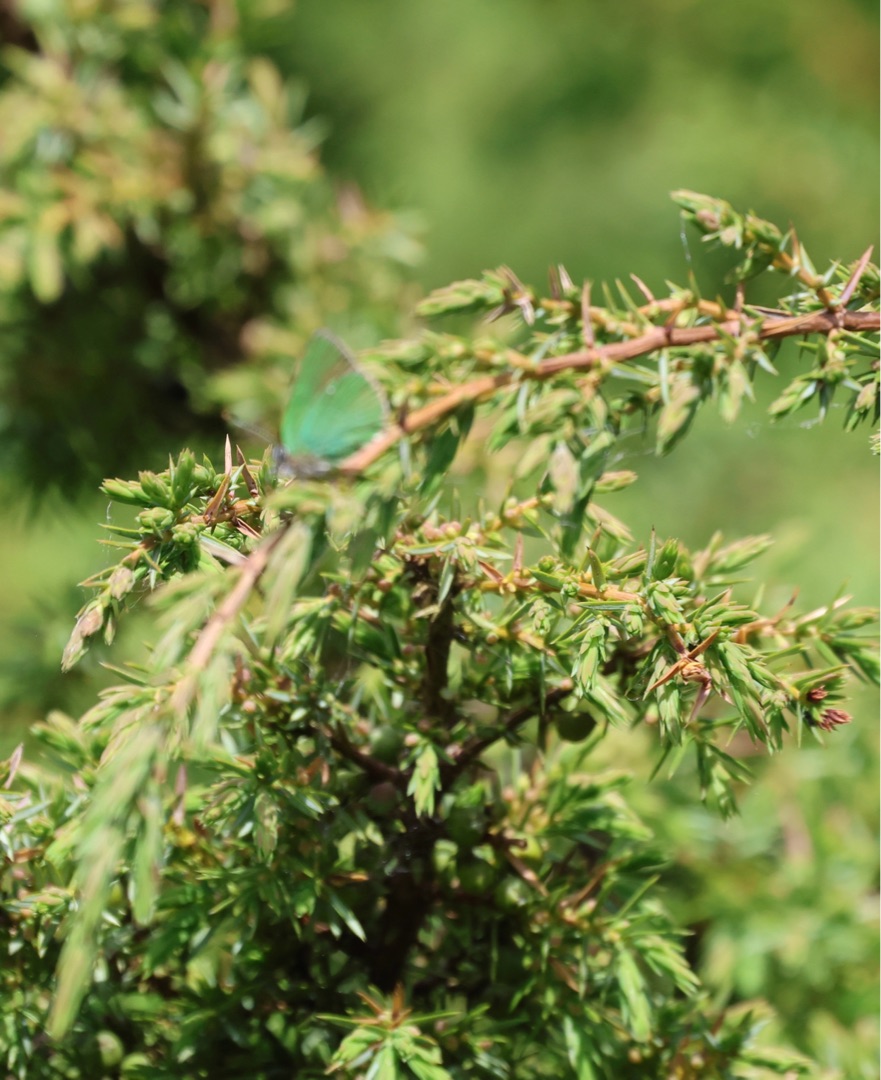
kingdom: Animalia
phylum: Arthropoda
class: Insecta
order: Lepidoptera
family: Lycaenidae
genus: Callophrys
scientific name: Callophrys rubi
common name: Grøn busksommerfugl
